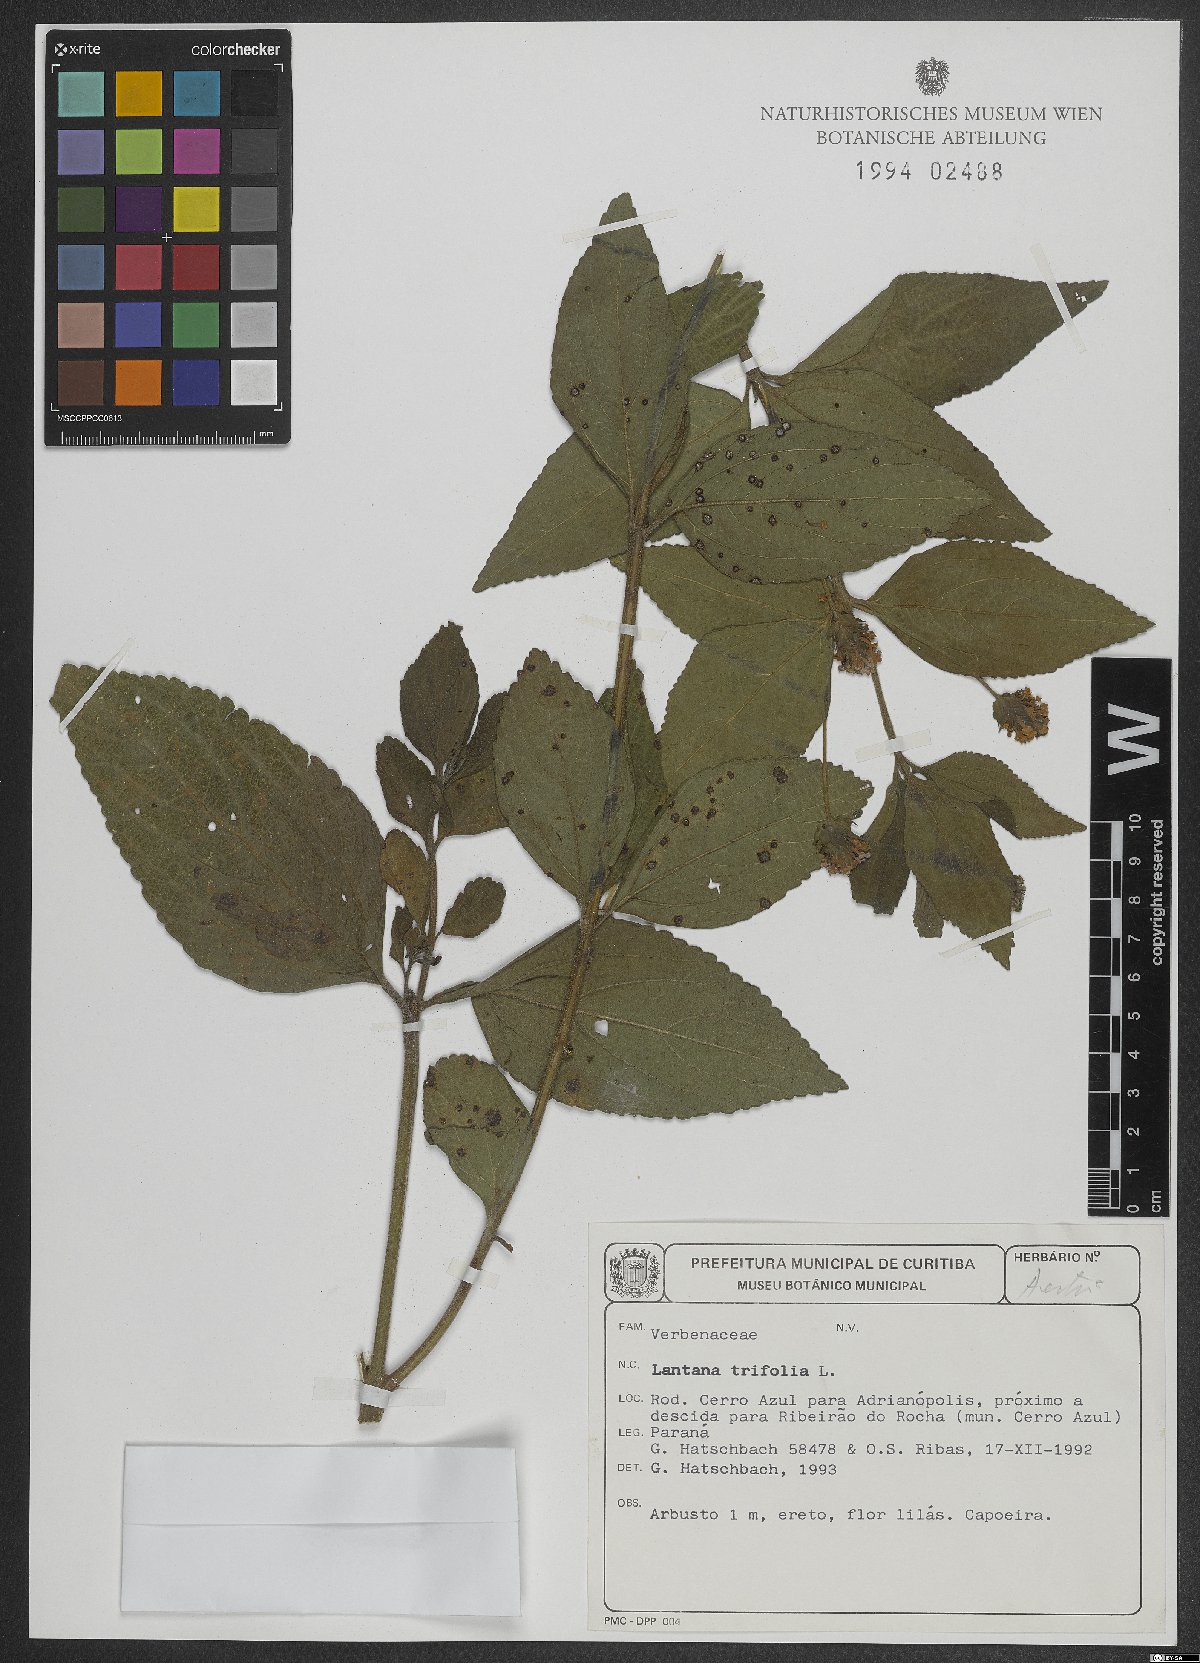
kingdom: Plantae
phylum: Tracheophyta
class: Magnoliopsida
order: Lamiales
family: Verbenaceae
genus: Lantana
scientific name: Lantana trifolia
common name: Sweet-sage
